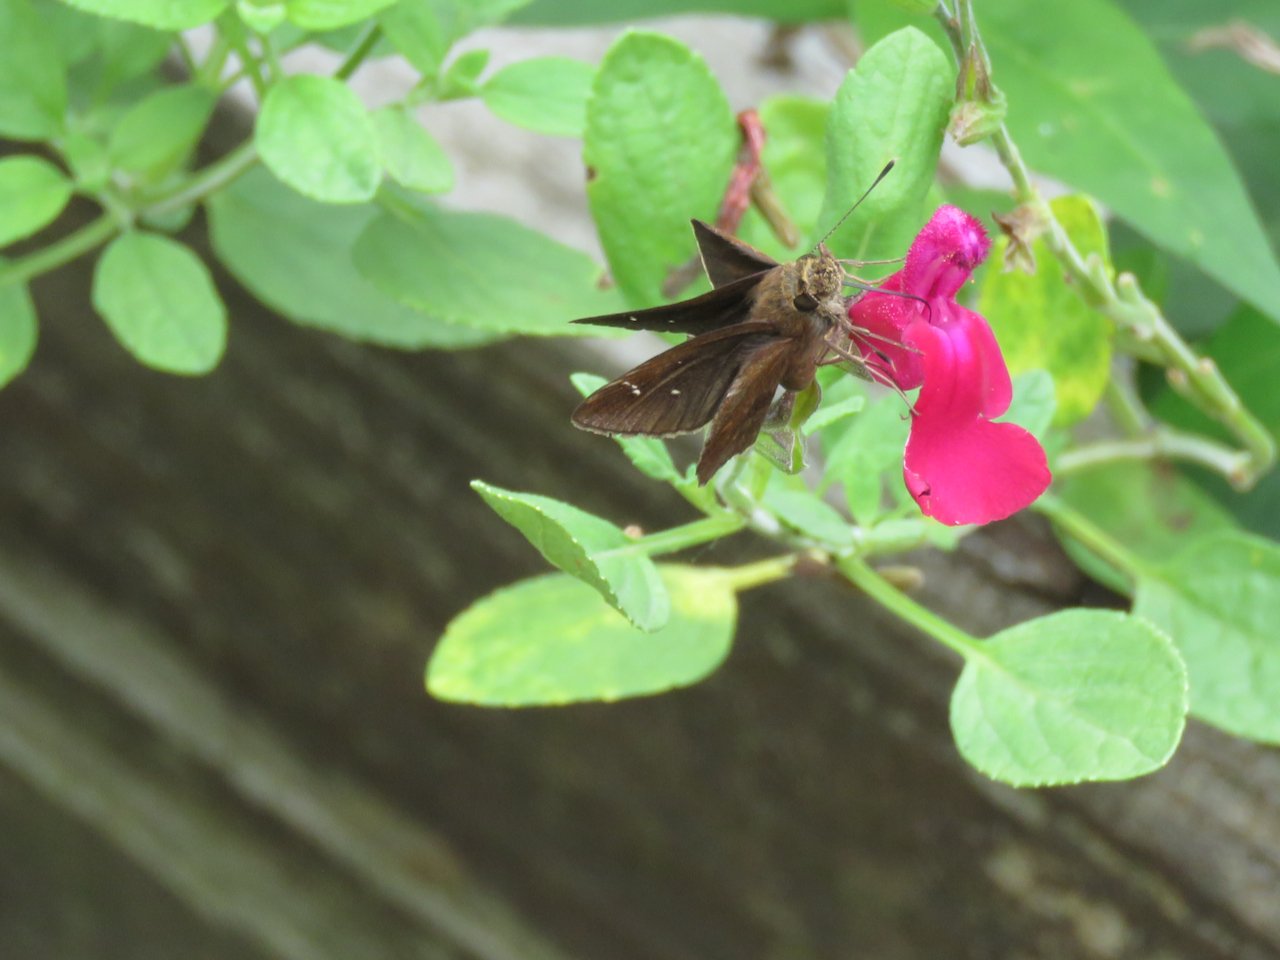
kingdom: Animalia
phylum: Arthropoda
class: Insecta
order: Lepidoptera
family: Hesperiidae
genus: Lerema
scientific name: Lerema accius
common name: Clouded Skipper
